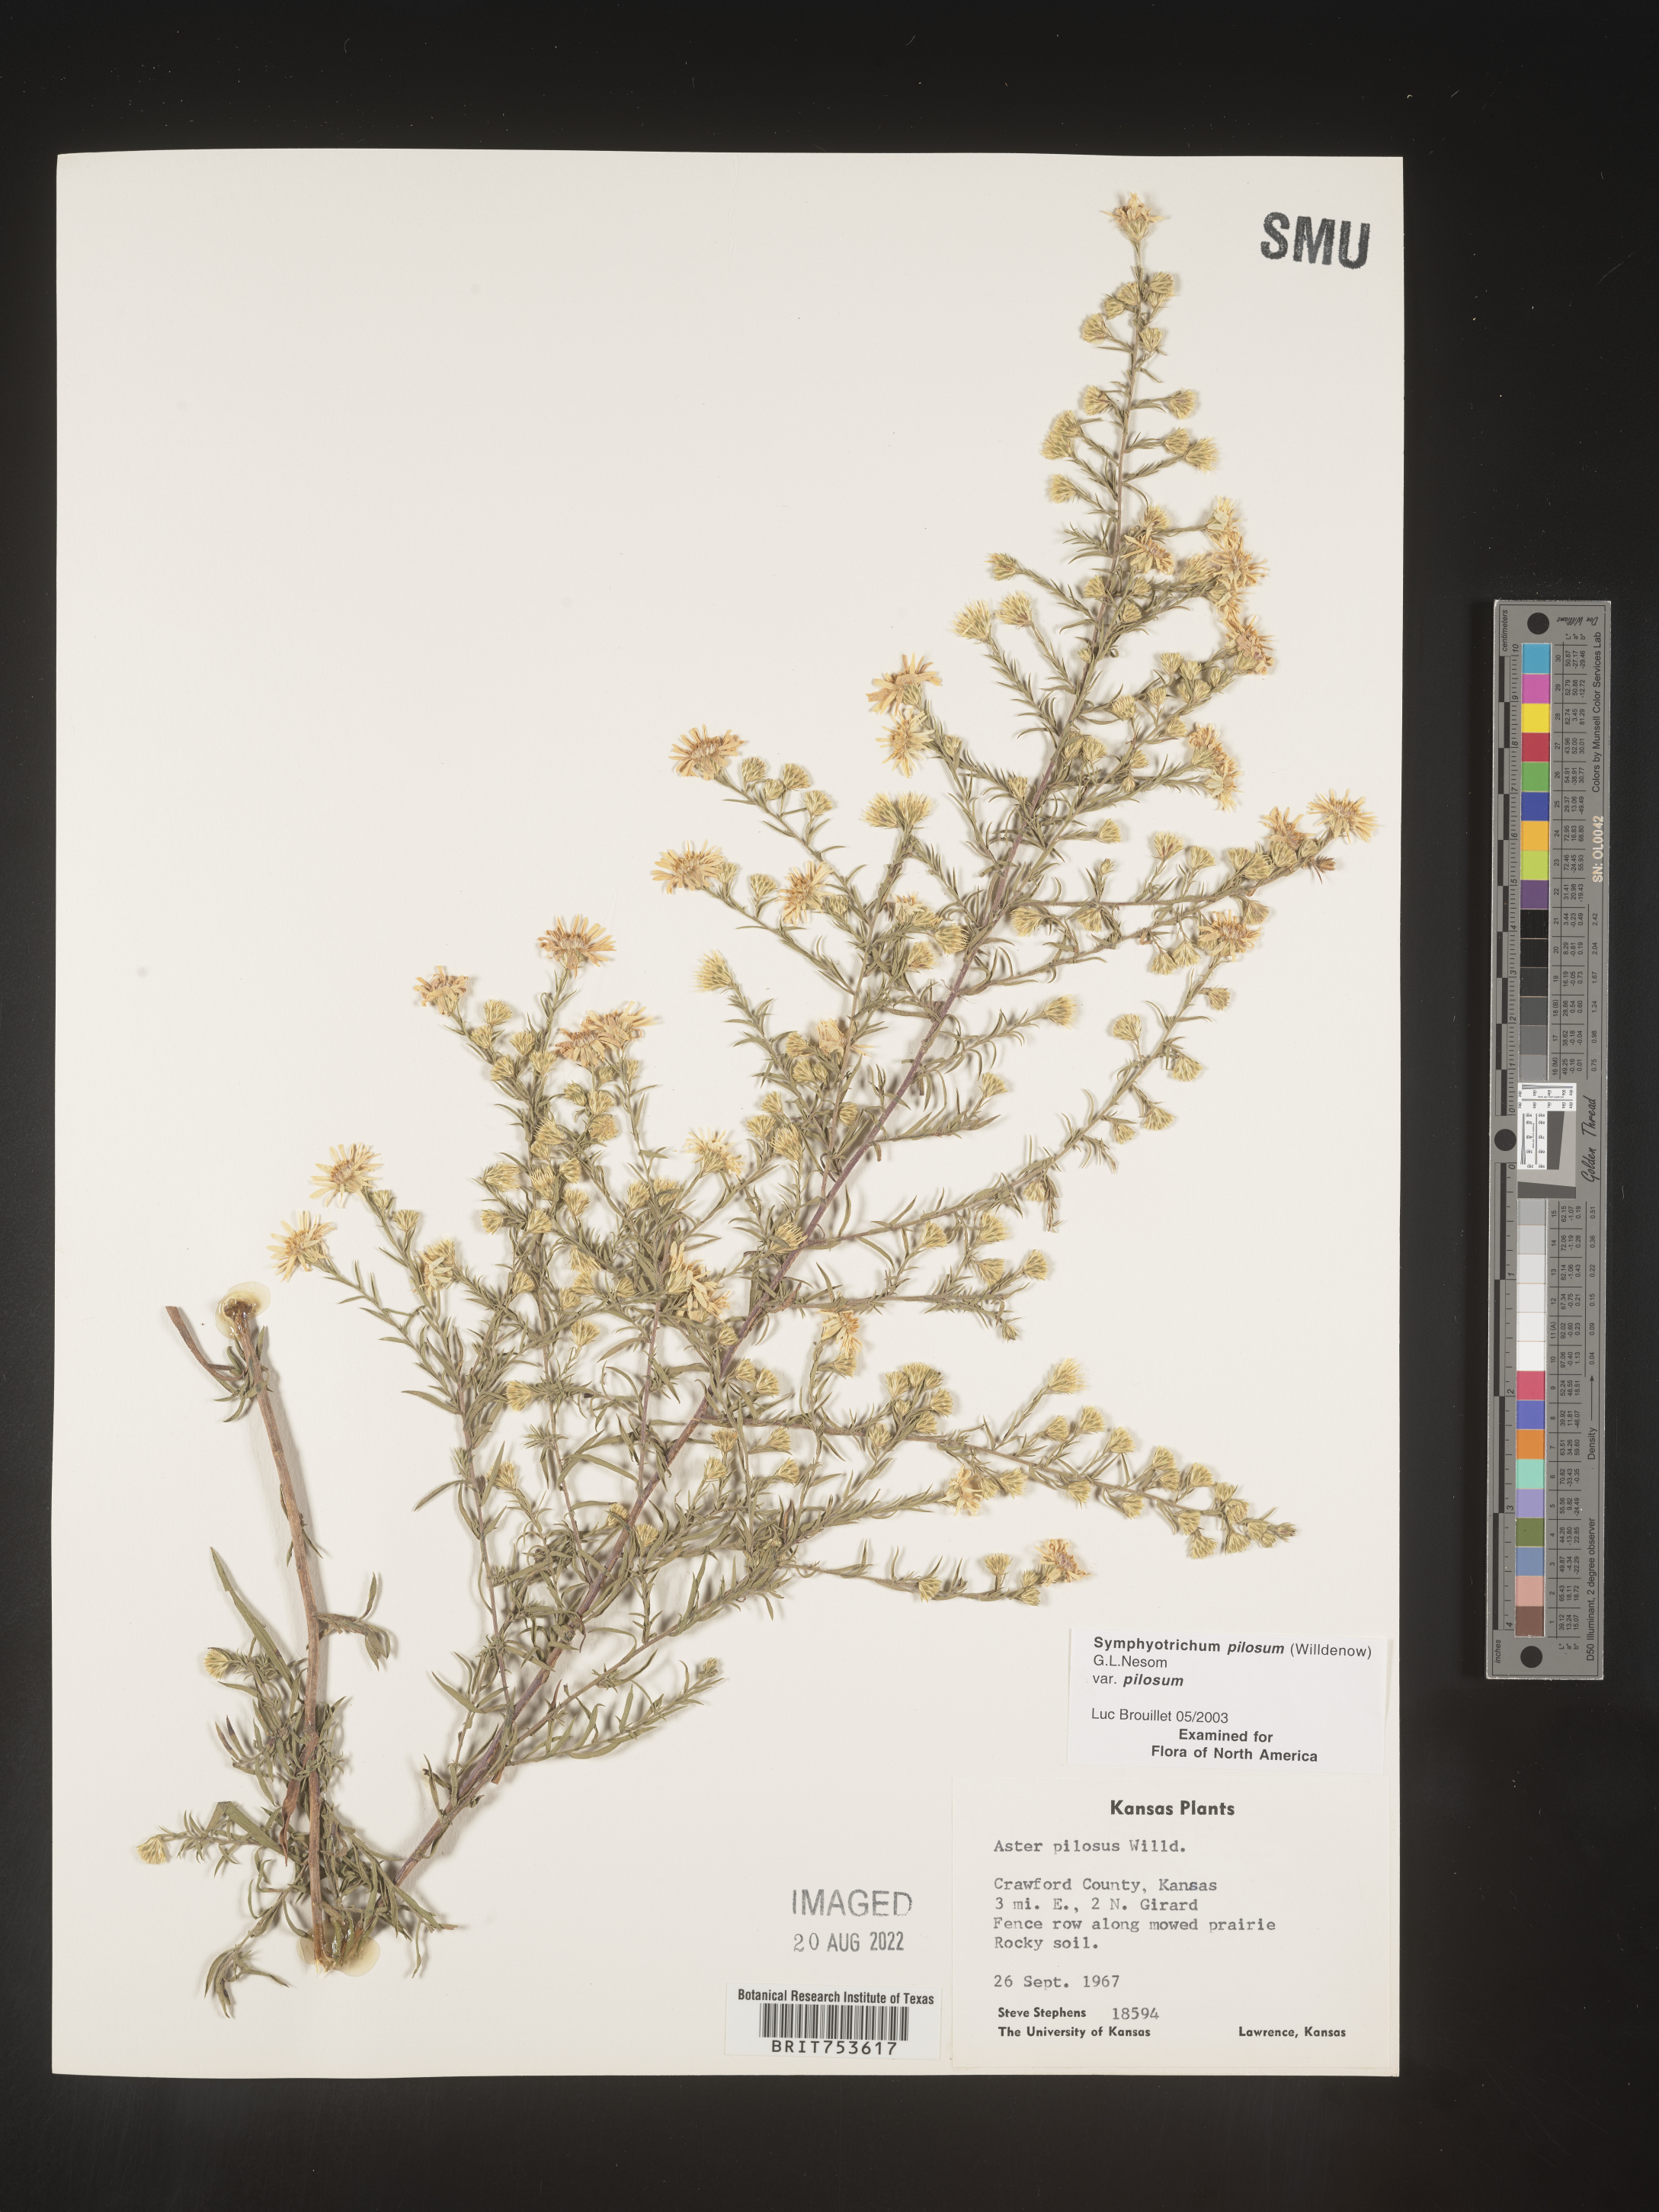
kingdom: Plantae
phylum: Tracheophyta
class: Magnoliopsida
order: Asterales
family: Asteraceae
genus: Symphyotrichum
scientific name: Symphyotrichum pilosum
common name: Awl aster
